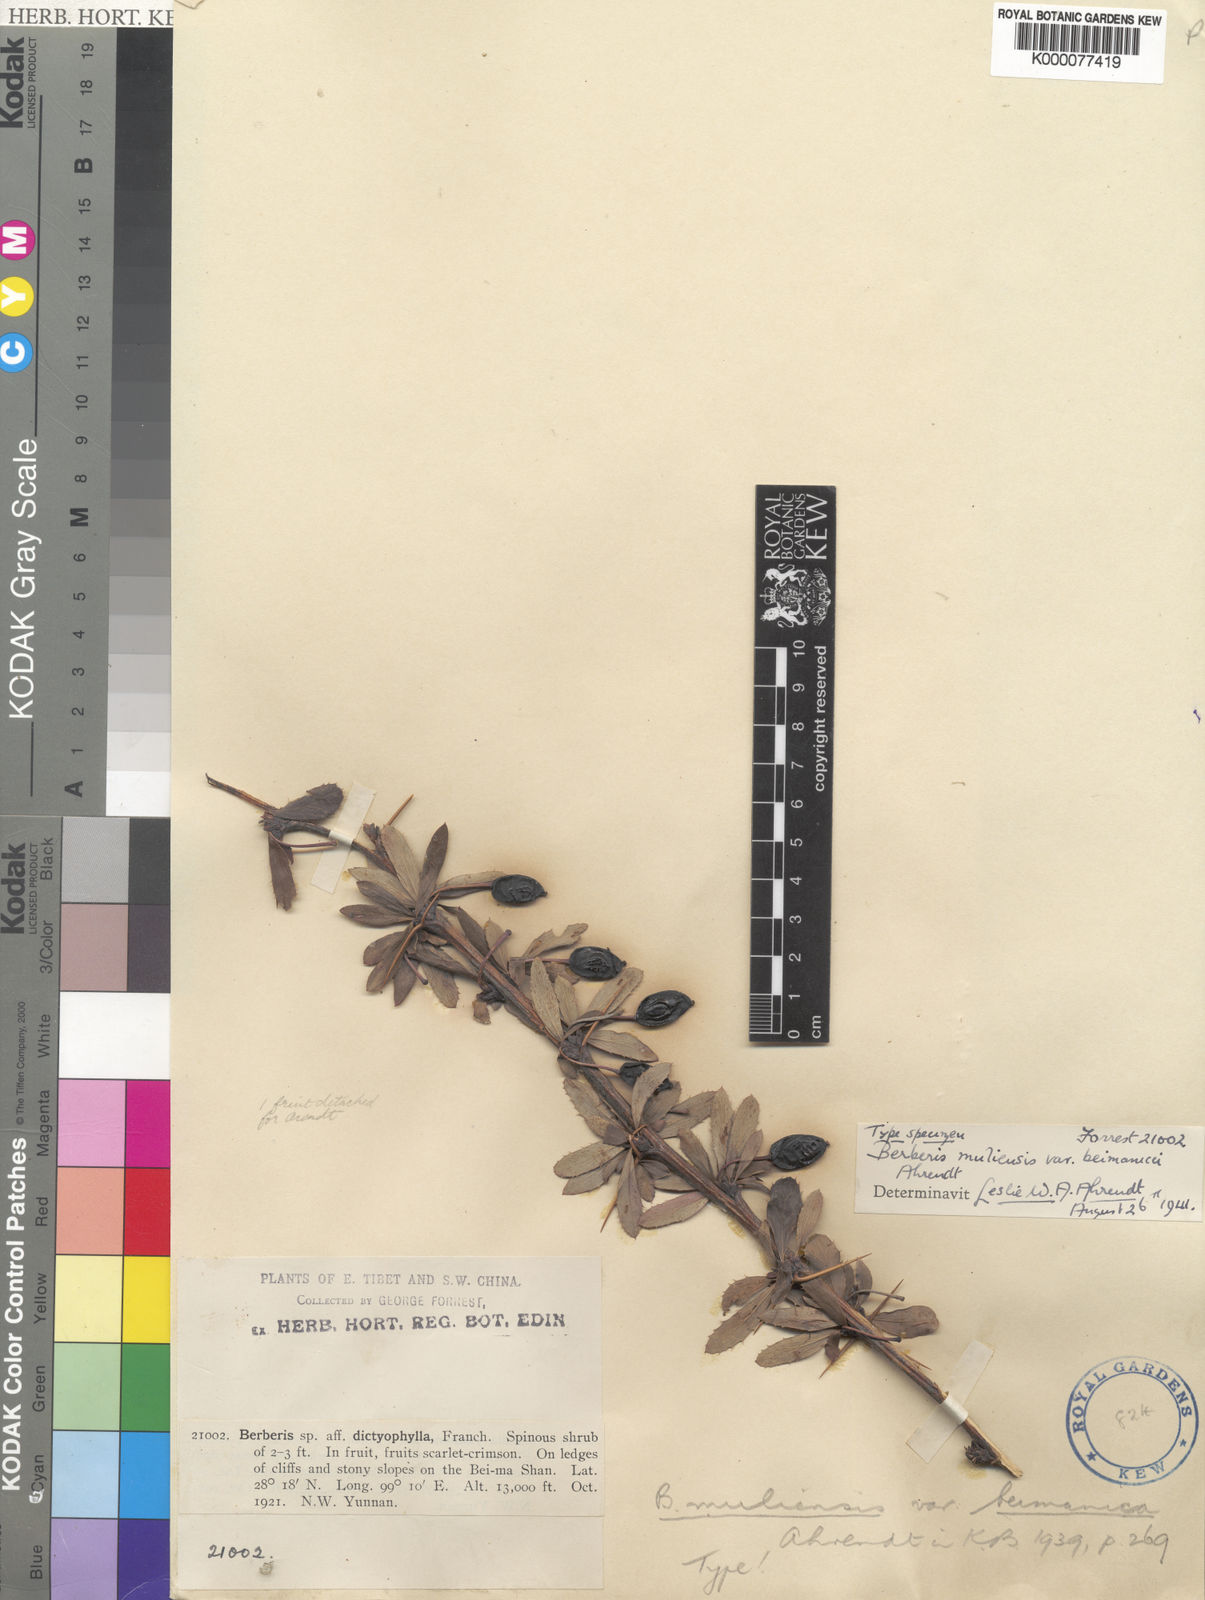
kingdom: Plantae
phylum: Tracheophyta
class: Magnoliopsida
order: Ranunculales
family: Berberidaceae
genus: Berberis
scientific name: Berberis muliensis
